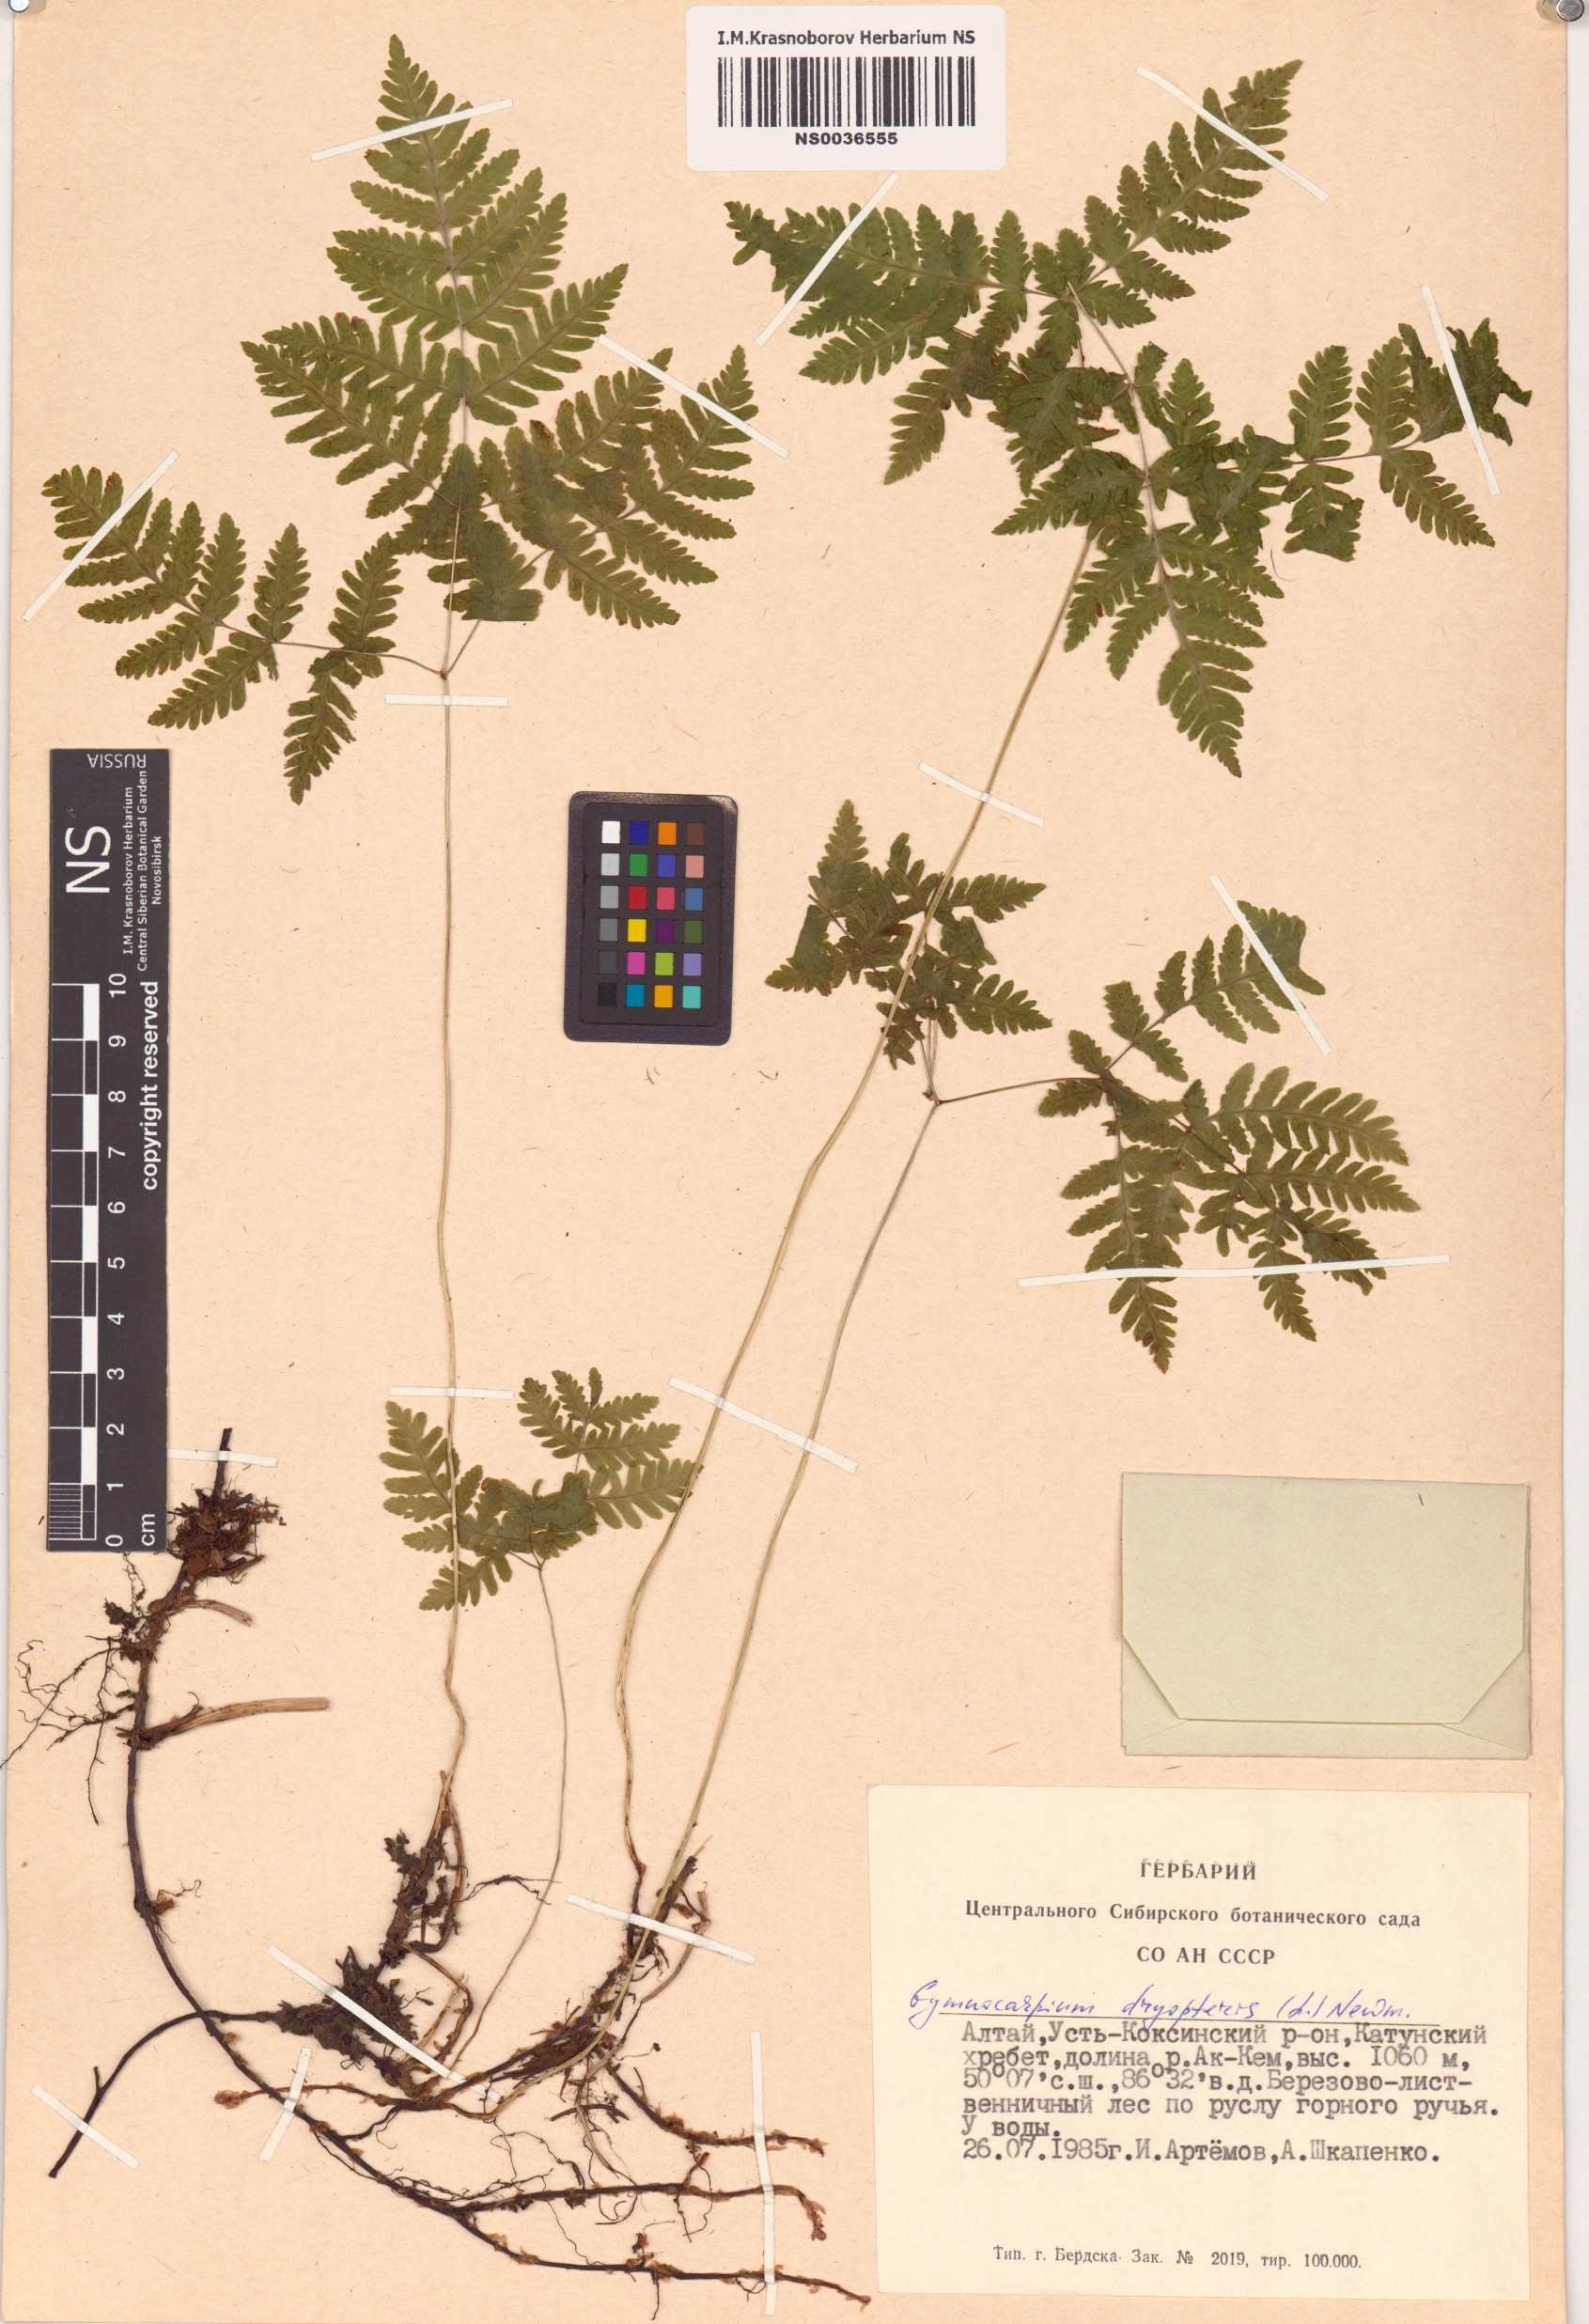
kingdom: Plantae
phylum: Tracheophyta
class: Polypodiopsida
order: Polypodiales
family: Cystopteridaceae
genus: Gymnocarpium
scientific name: Gymnocarpium dryopteris
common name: Oak fern
